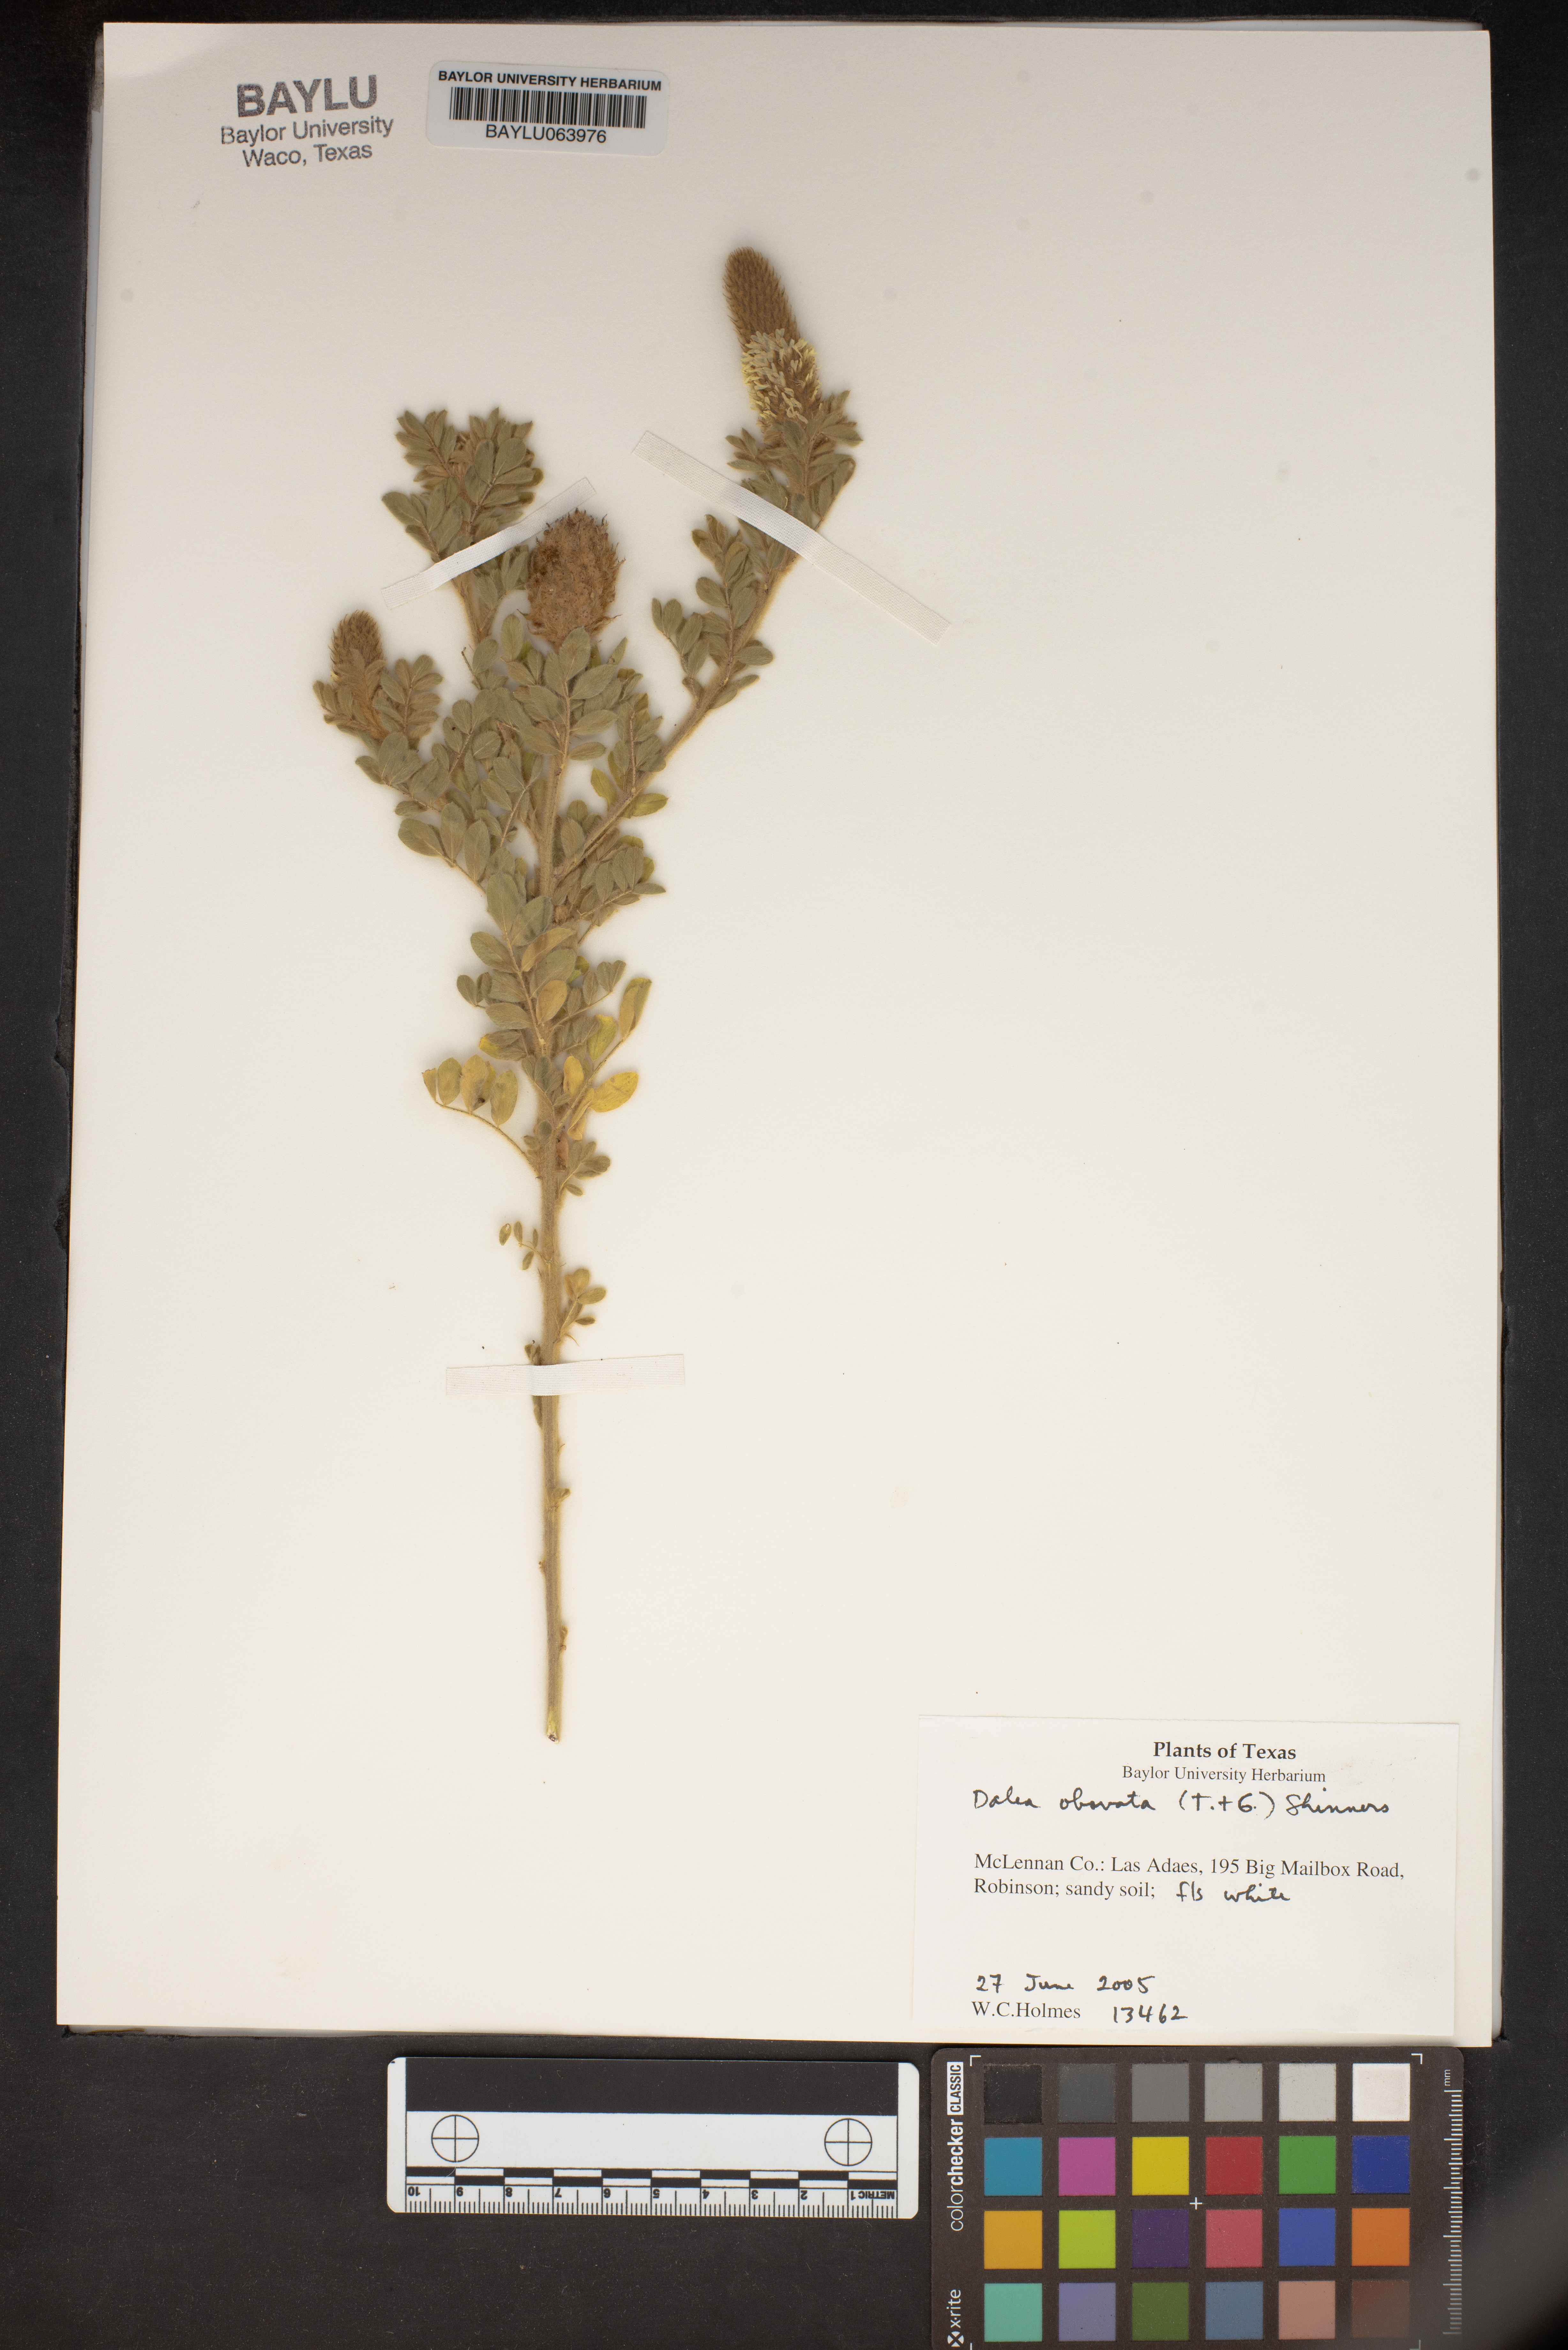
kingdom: Plantae
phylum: Tracheophyta
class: Magnoliopsida
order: Fabales
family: Fabaceae
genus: Dalea
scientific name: Dalea obovata
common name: Pussyfoot
